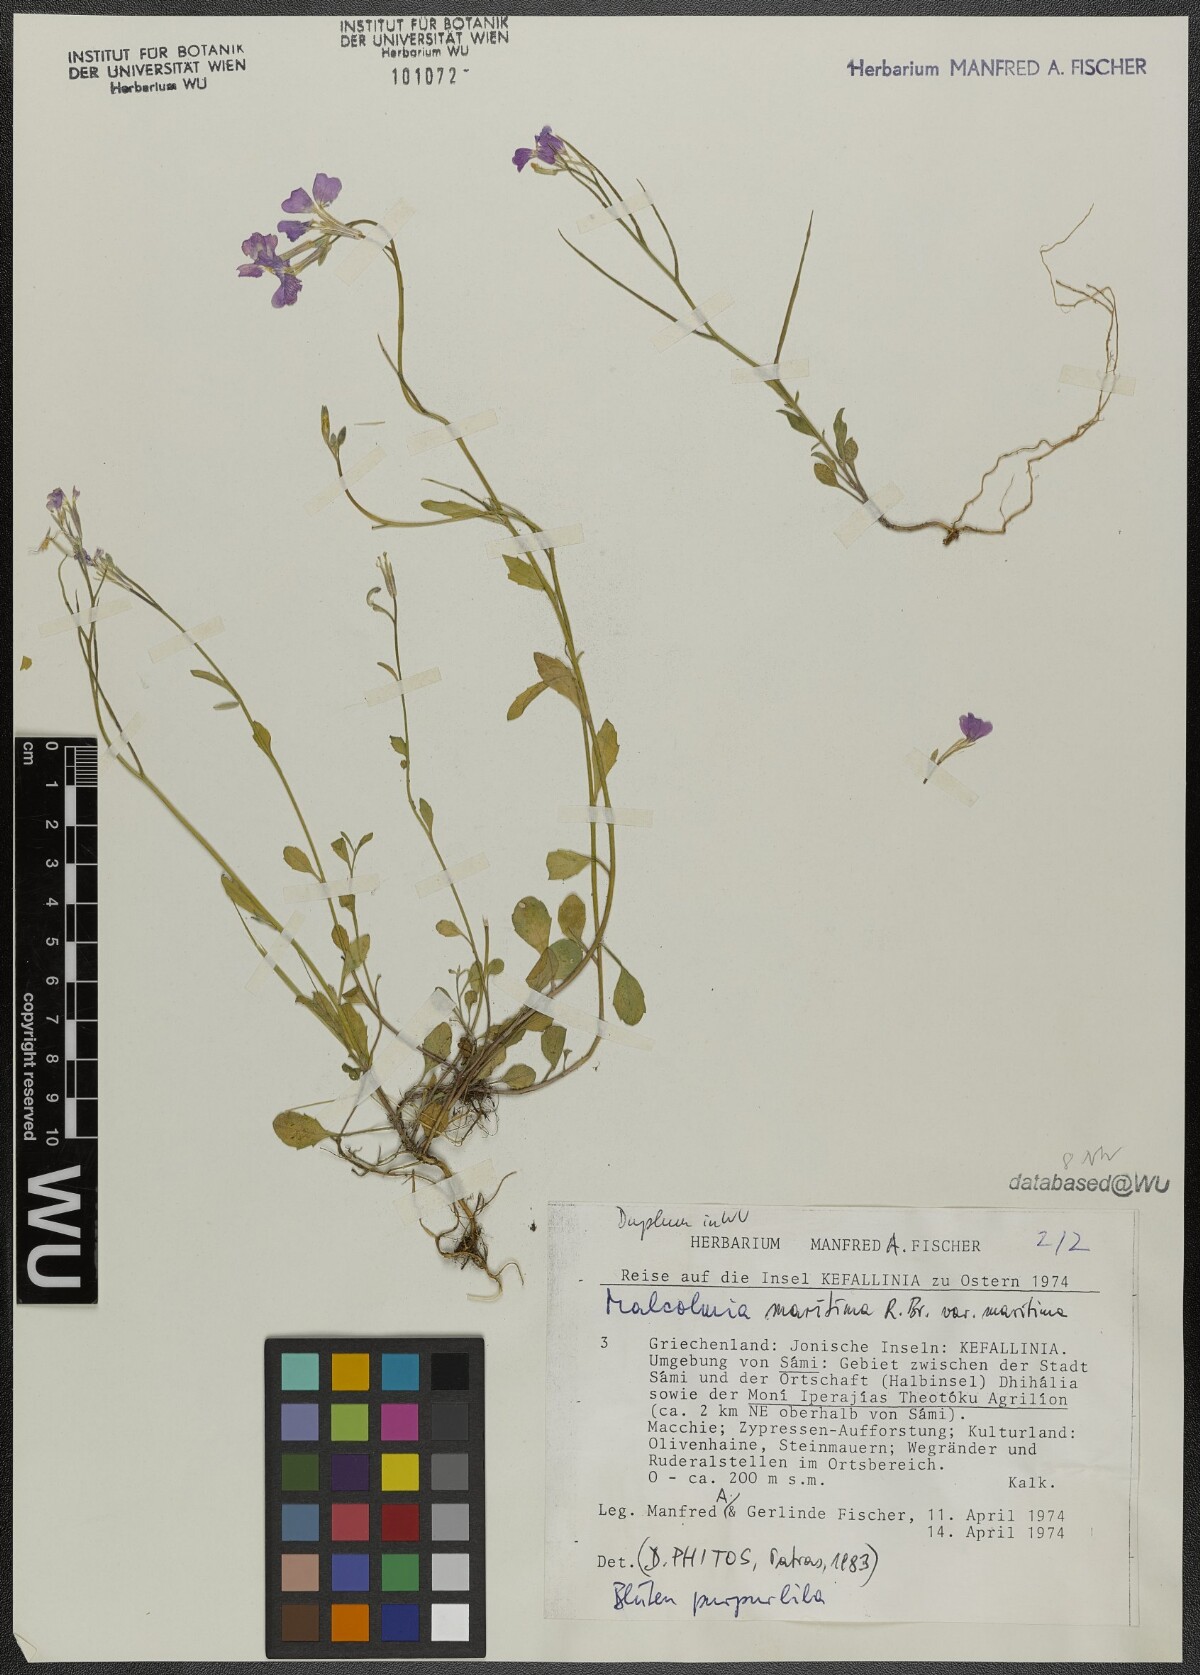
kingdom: Plantae
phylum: Tracheophyta
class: Magnoliopsida
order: Brassicales
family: Brassicaceae
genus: Malcolmia
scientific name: Malcolmia maritima
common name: Virginia stock
